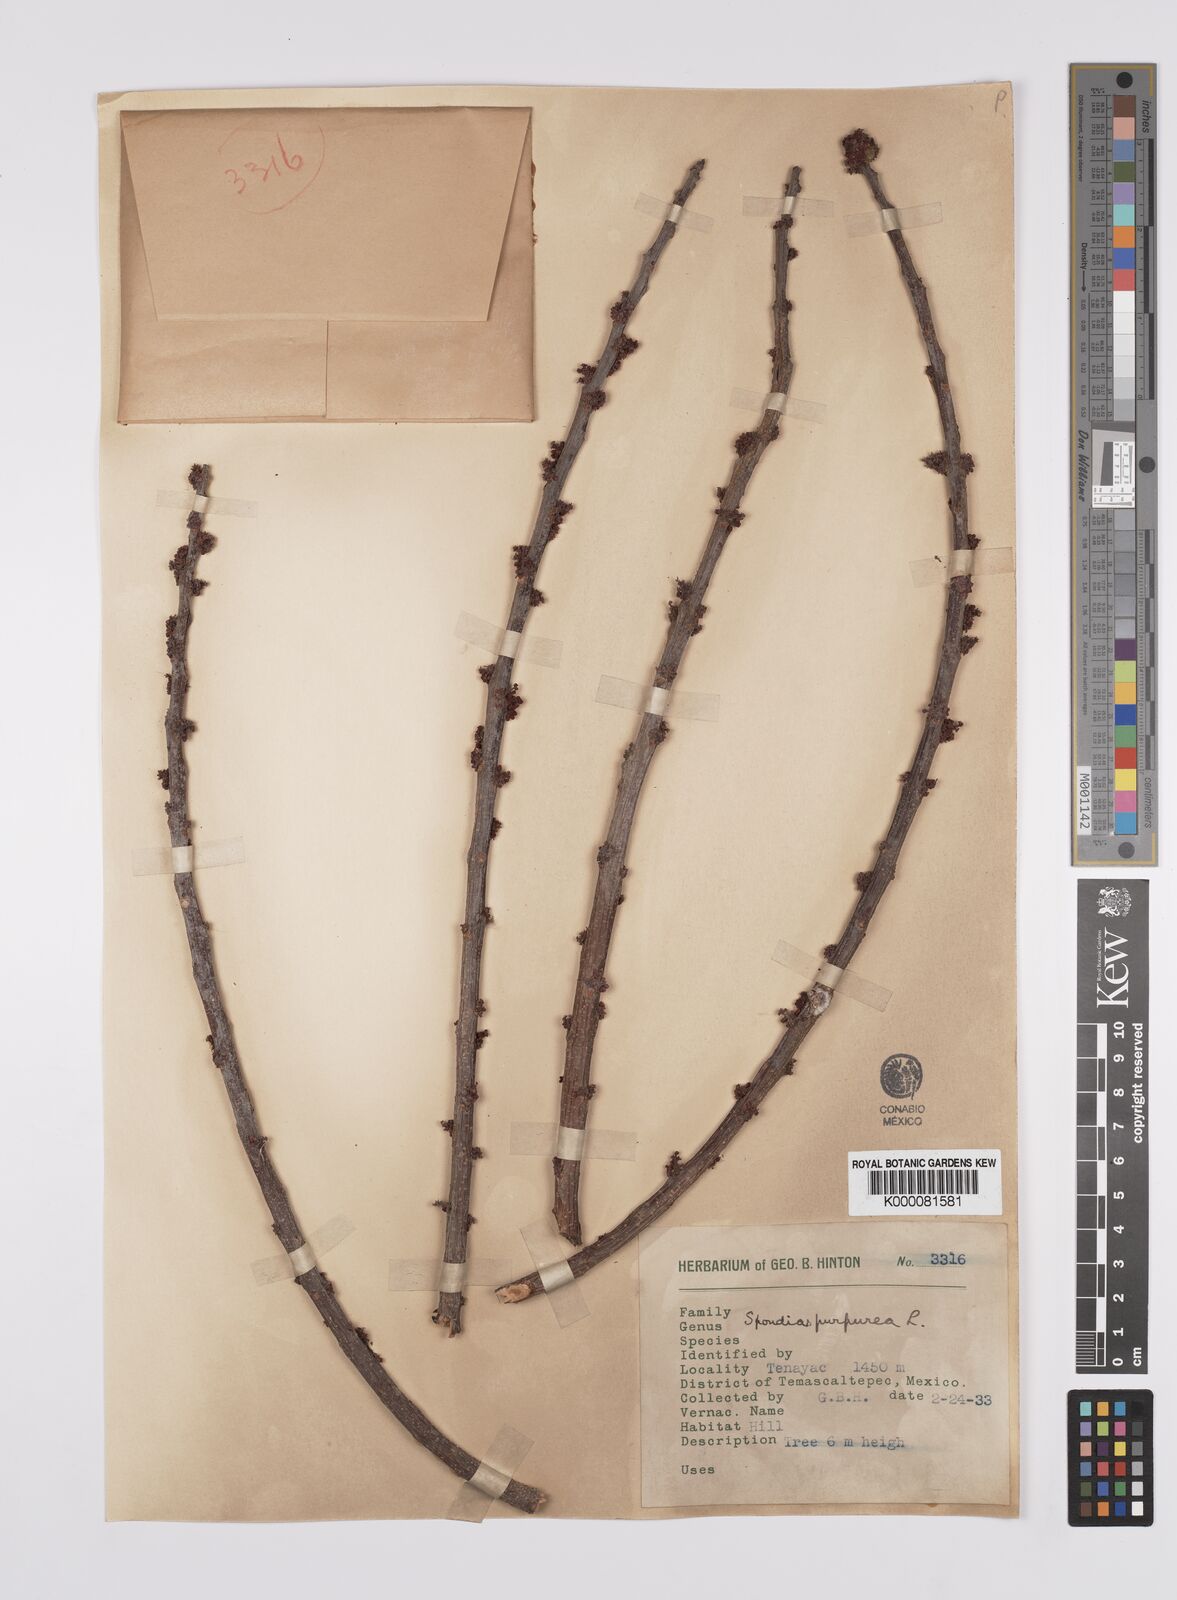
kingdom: Plantae
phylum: Tracheophyta
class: Magnoliopsida
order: Sapindales
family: Anacardiaceae
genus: Spondias
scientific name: Spondias purpurea
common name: Purple mombin
